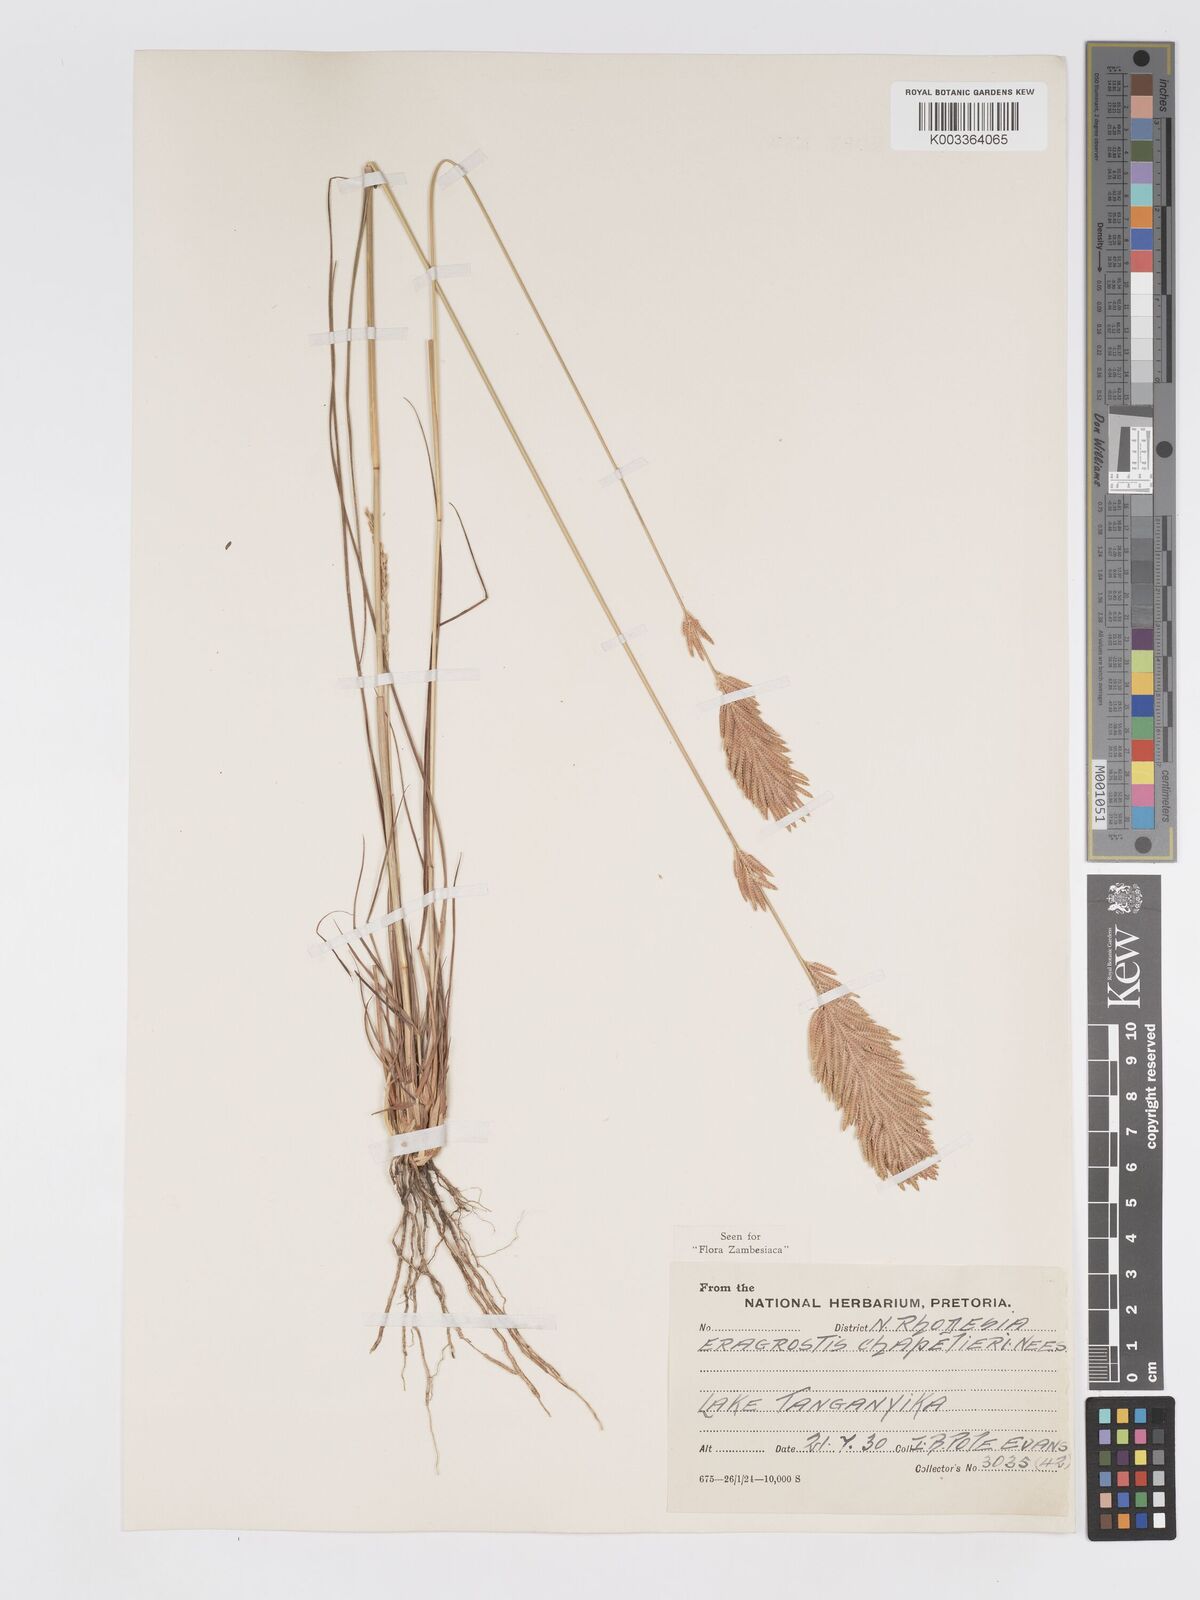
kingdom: Plantae
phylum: Tracheophyta
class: Liliopsida
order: Poales
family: Poaceae
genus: Eragrostis
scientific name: Eragrostis chapelieri
